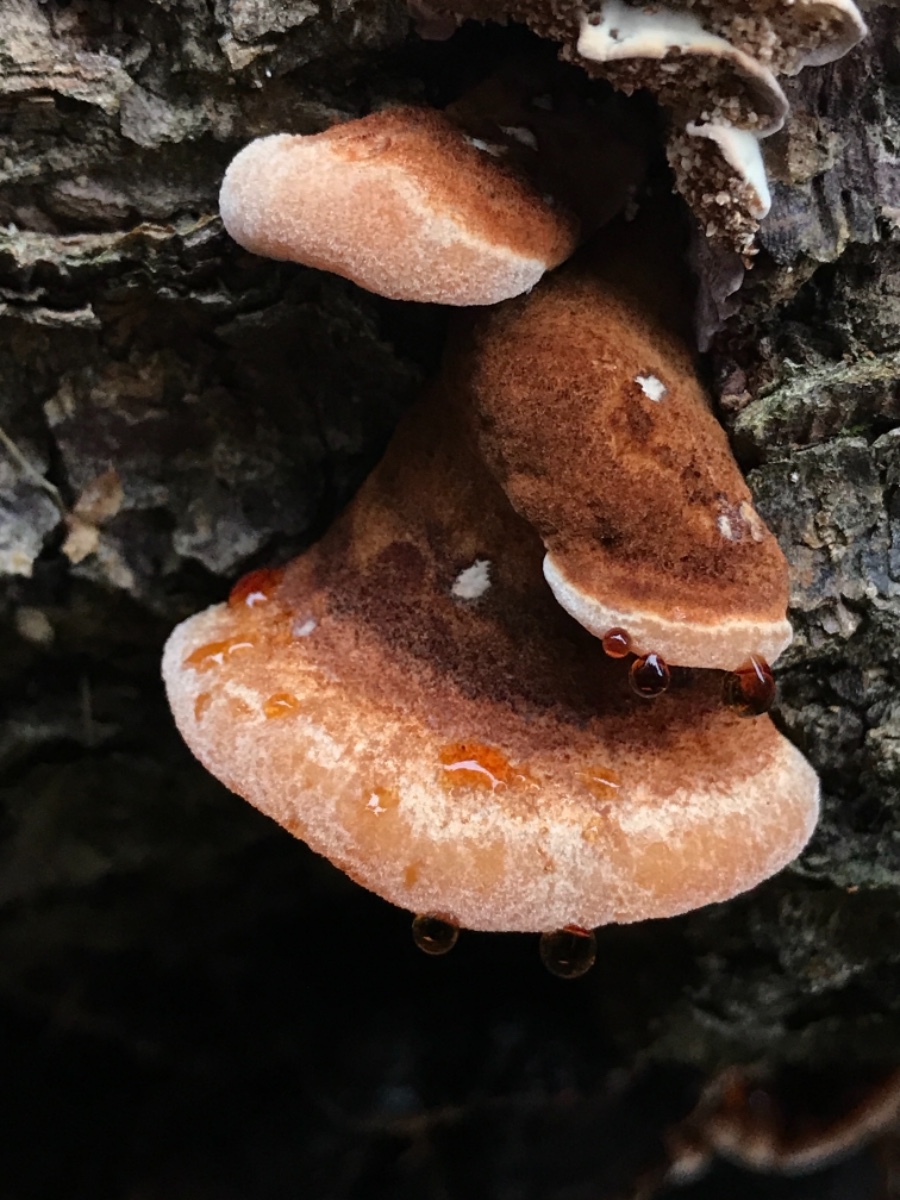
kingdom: Fungi
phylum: Basidiomycota
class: Agaricomycetes
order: Polyporales
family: Ischnodermataceae
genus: Ischnoderma
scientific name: Ischnoderma benzoinum
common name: gran-tjæreporesvamp
